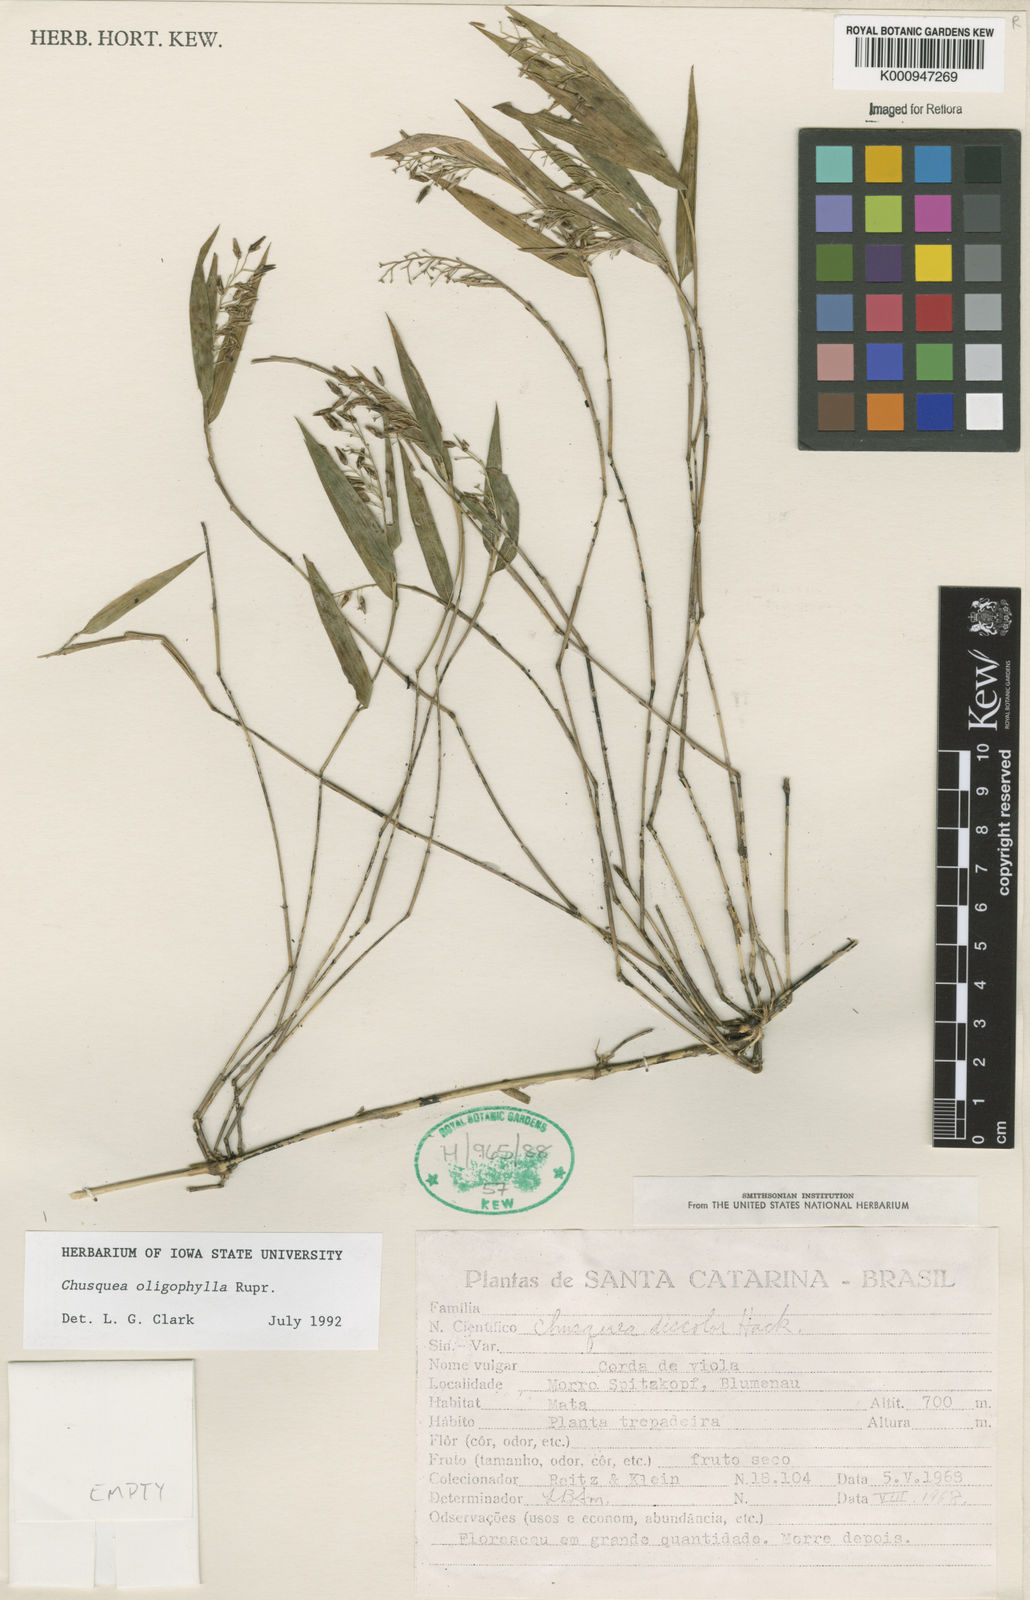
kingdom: Plantae
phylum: Tracheophyta
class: Liliopsida
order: Poales
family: Poaceae
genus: Chusquea
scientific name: Chusquea oligophylla
